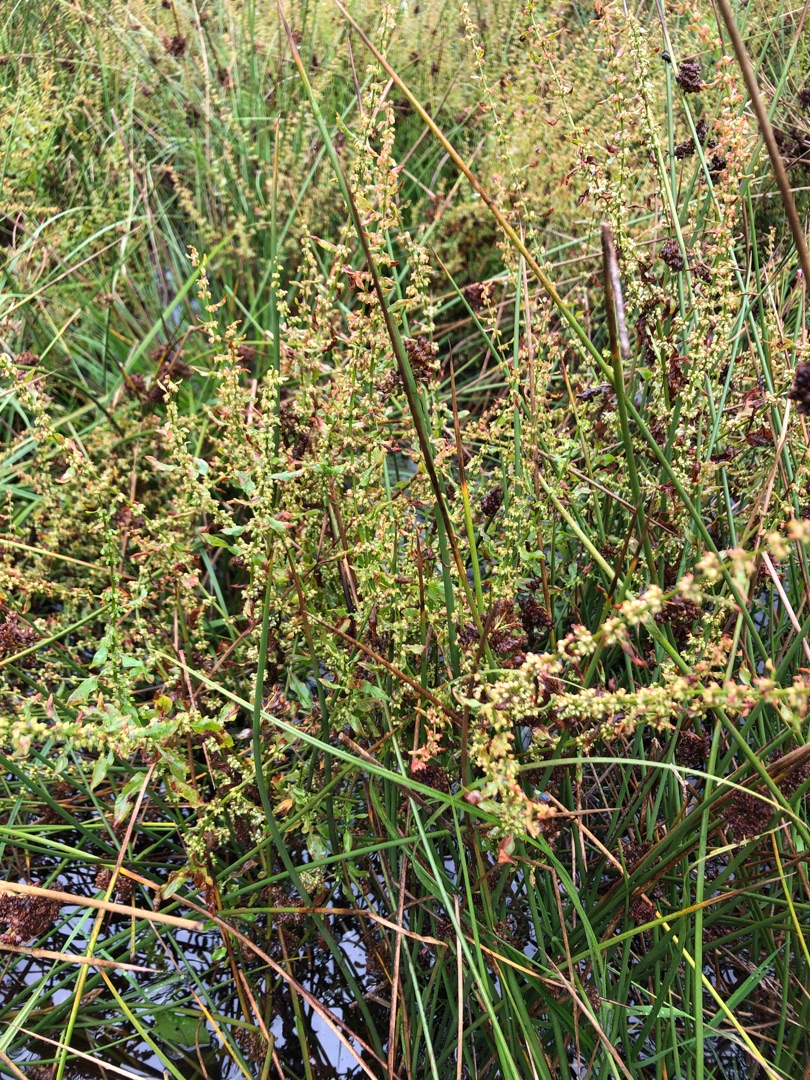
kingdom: Plantae
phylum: Tracheophyta
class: Magnoliopsida
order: Caryophyllales
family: Polygonaceae
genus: Rumex
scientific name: Rumex conglomeratus
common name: Nøgle-skræppe
